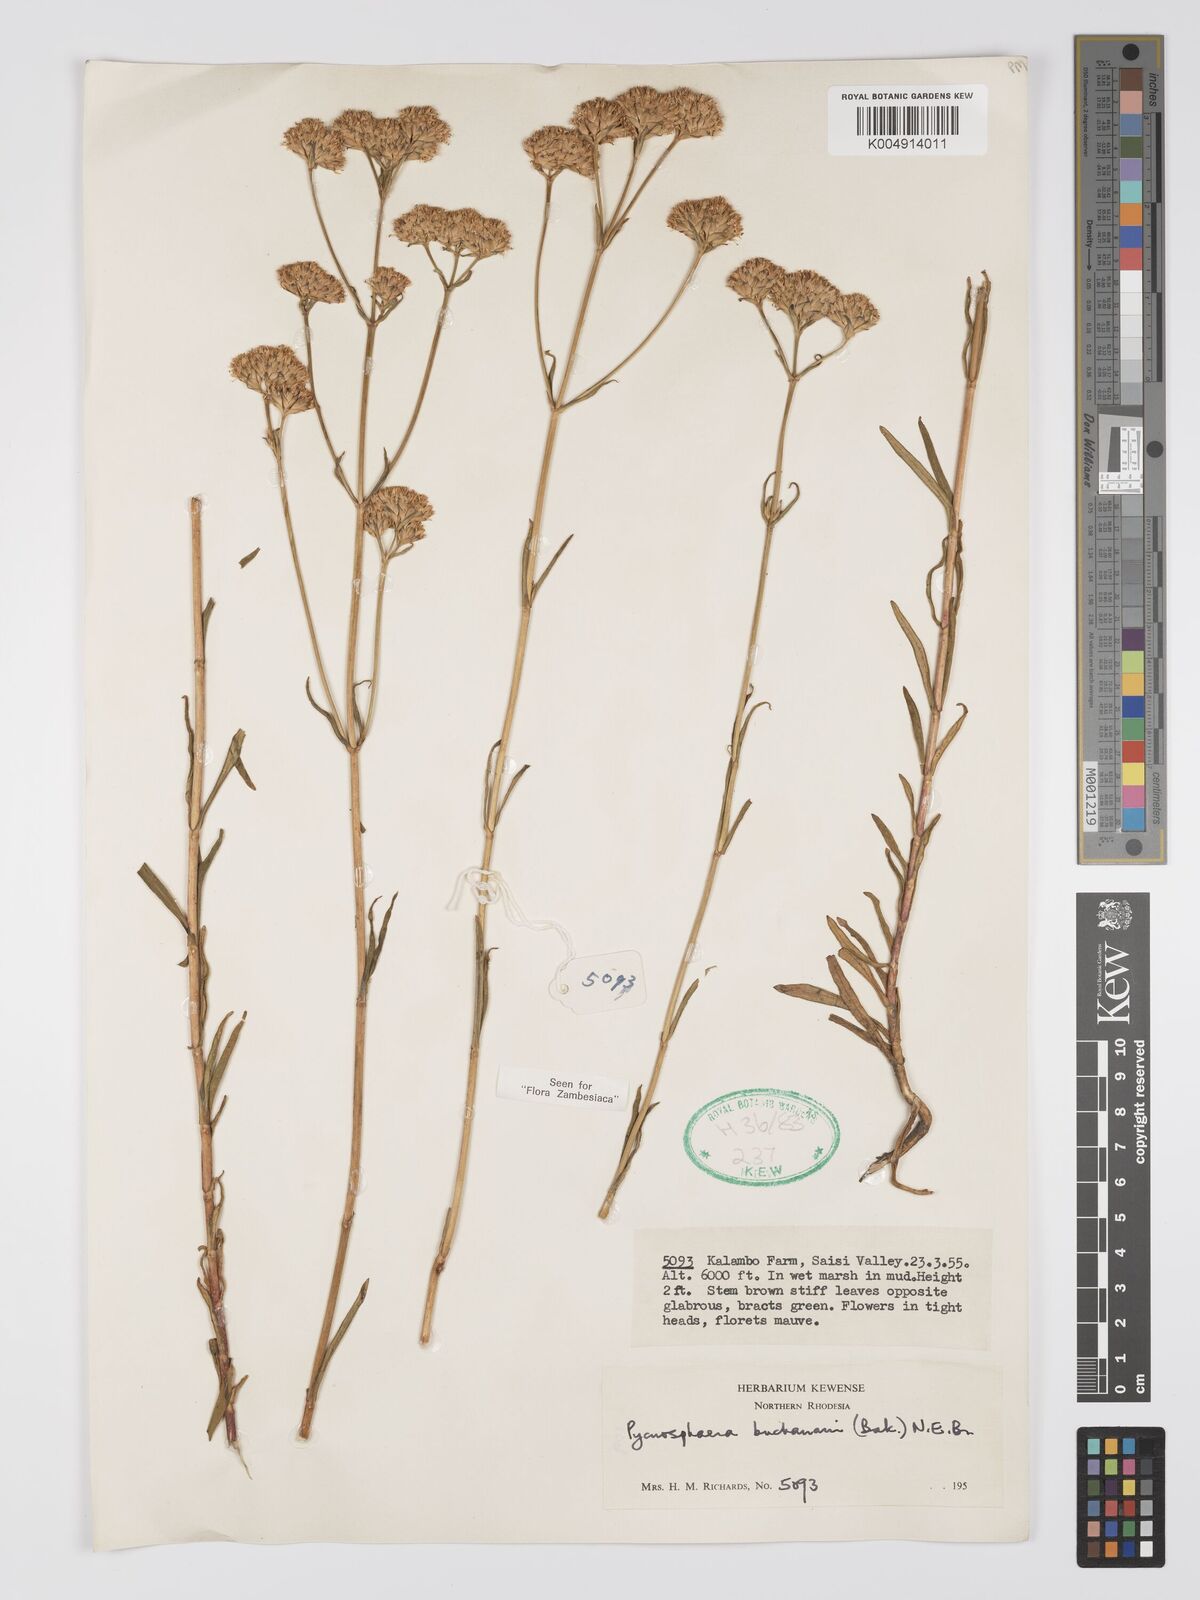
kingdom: Plantae
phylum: Tracheophyta
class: Magnoliopsida
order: Gentianales
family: Gentianaceae
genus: Pycnosphaera
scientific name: Pycnosphaera buchananii
